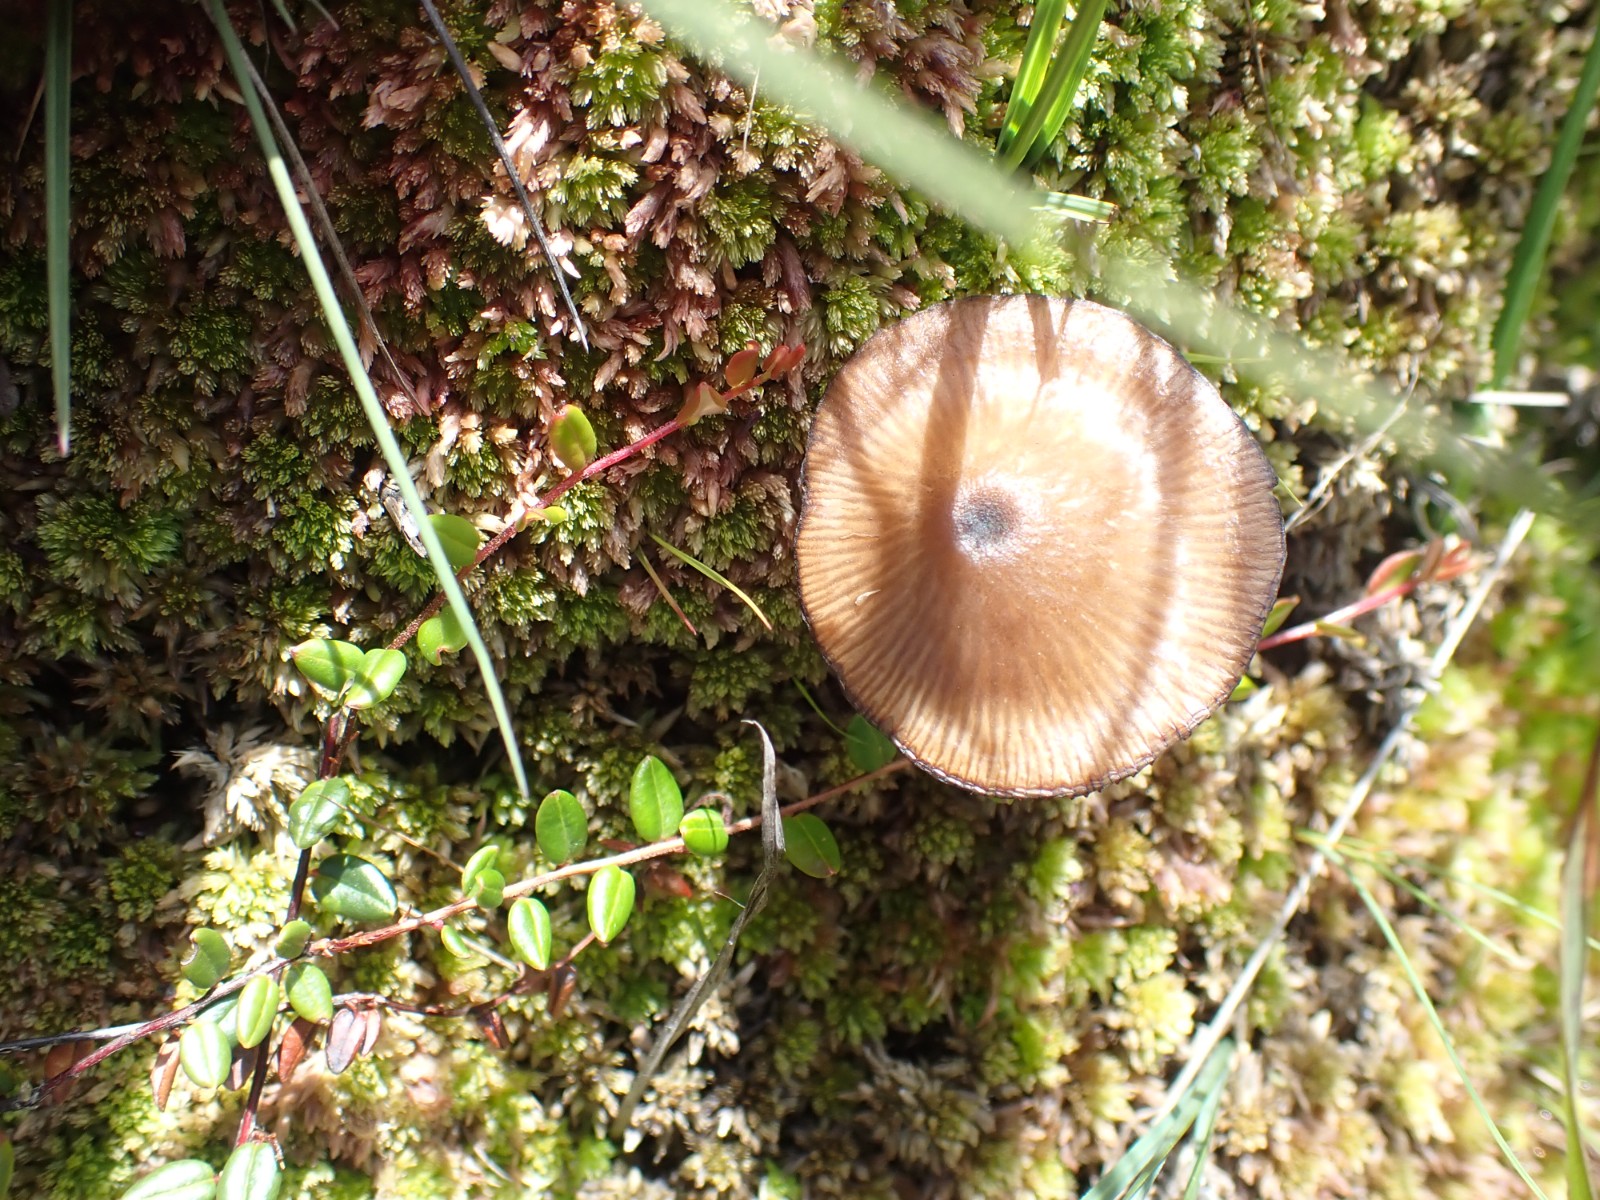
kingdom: Fungi
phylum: Basidiomycota
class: Agaricomycetes
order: Agaricales
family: Entolomataceae
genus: Entoloma
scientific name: Entoloma
